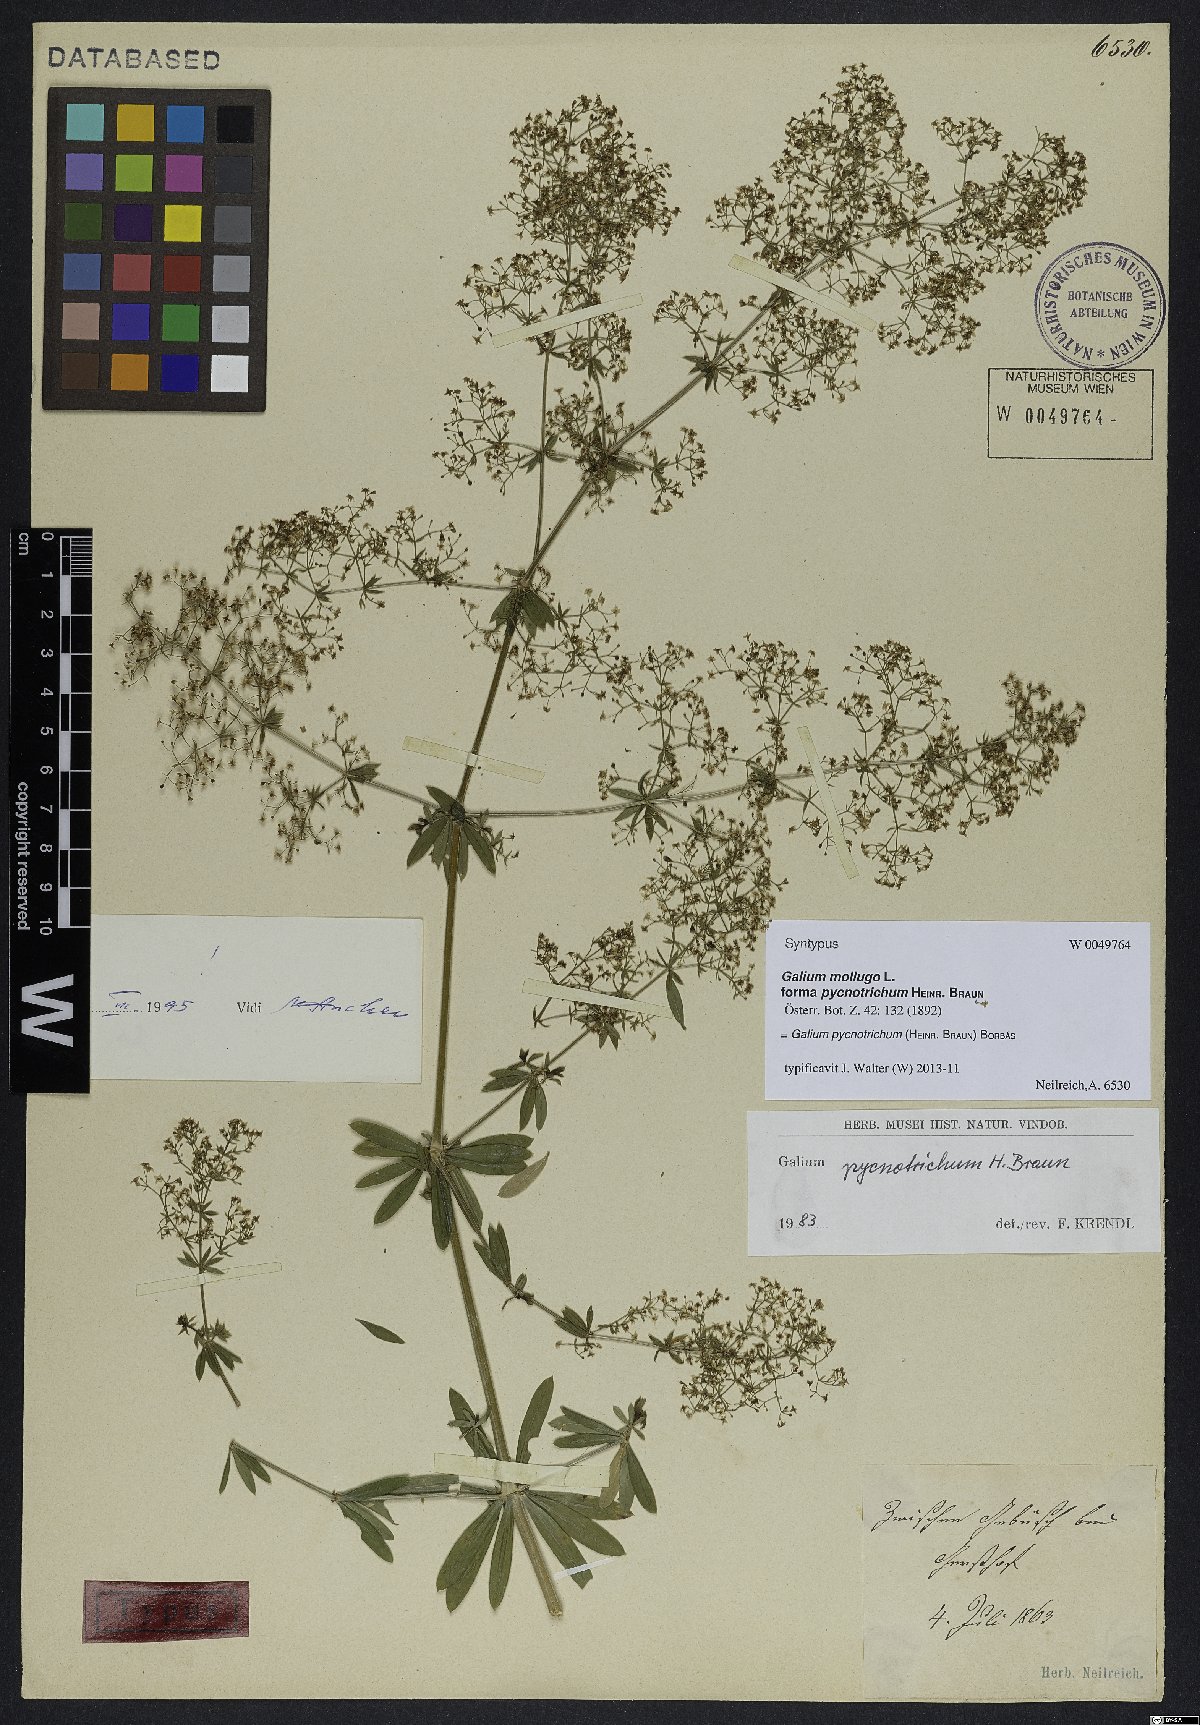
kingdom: Plantae
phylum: Tracheophyta
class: Magnoliopsida
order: Gentianales
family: Rubiaceae
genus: Galium
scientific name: Galium album
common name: White bedstraw
